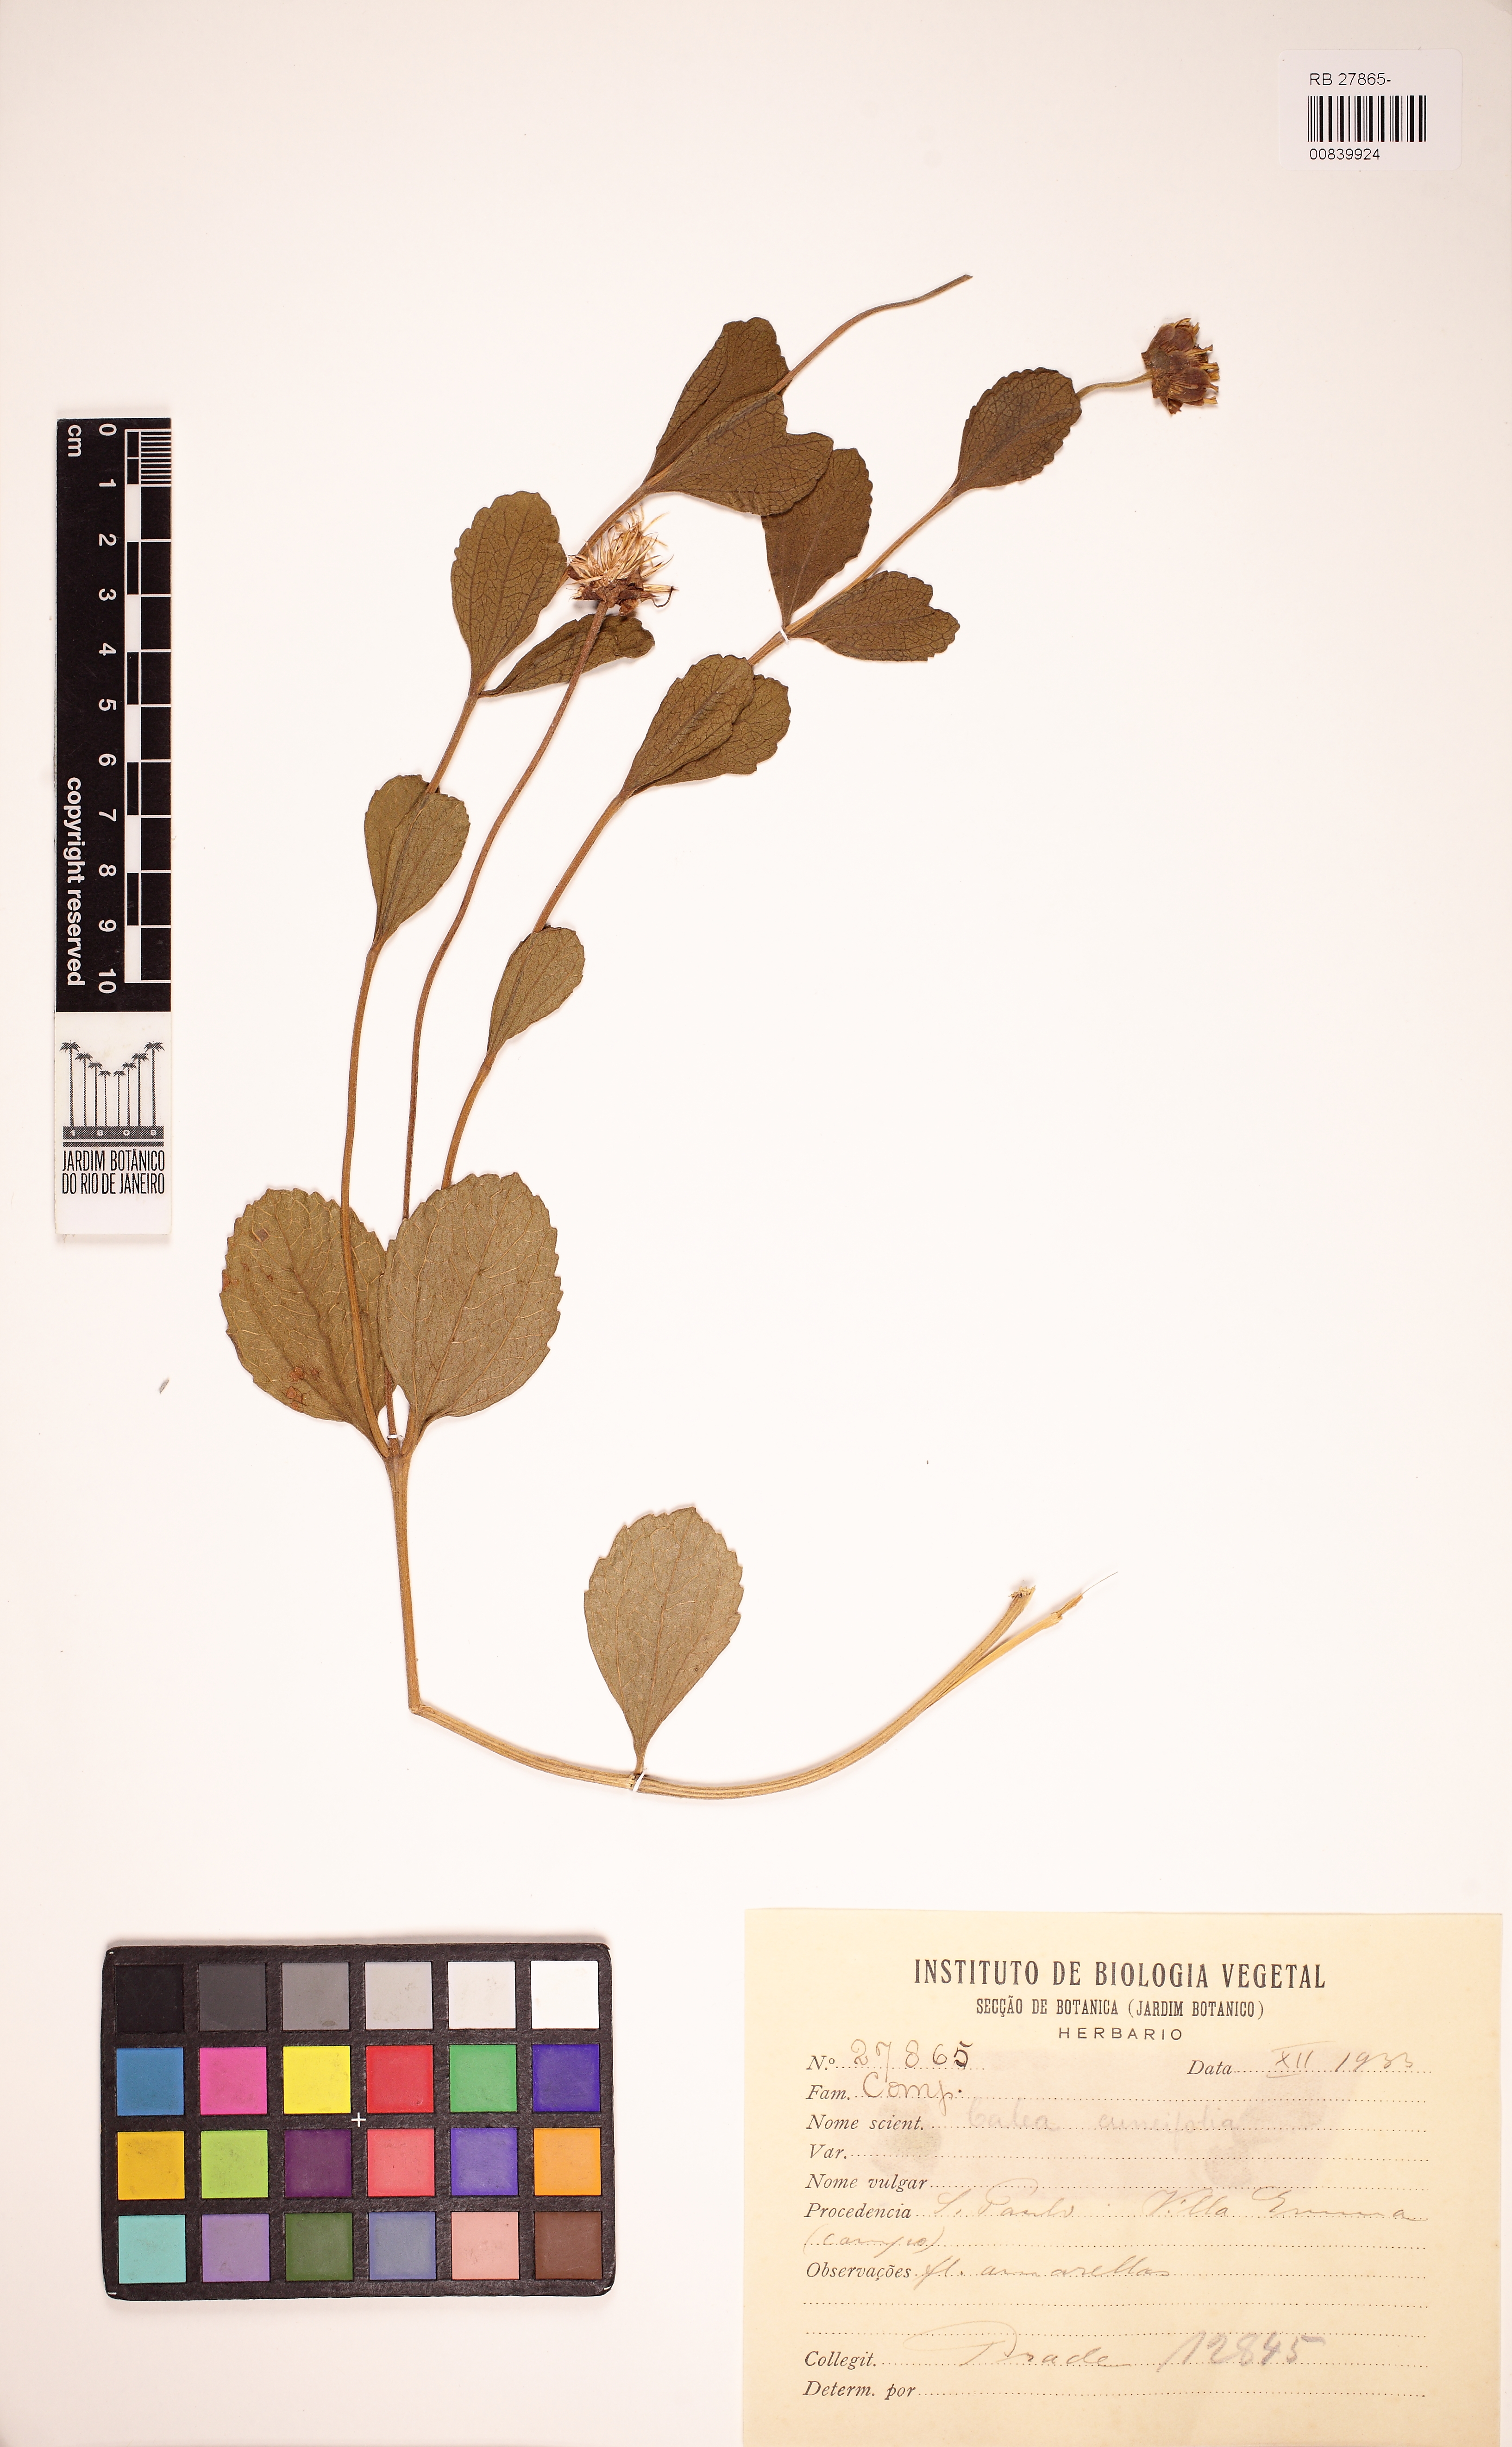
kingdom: Plantae
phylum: Tracheophyta
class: Magnoliopsida
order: Asterales
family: Asteraceae
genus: Calea
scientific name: Calea cuneifolia
